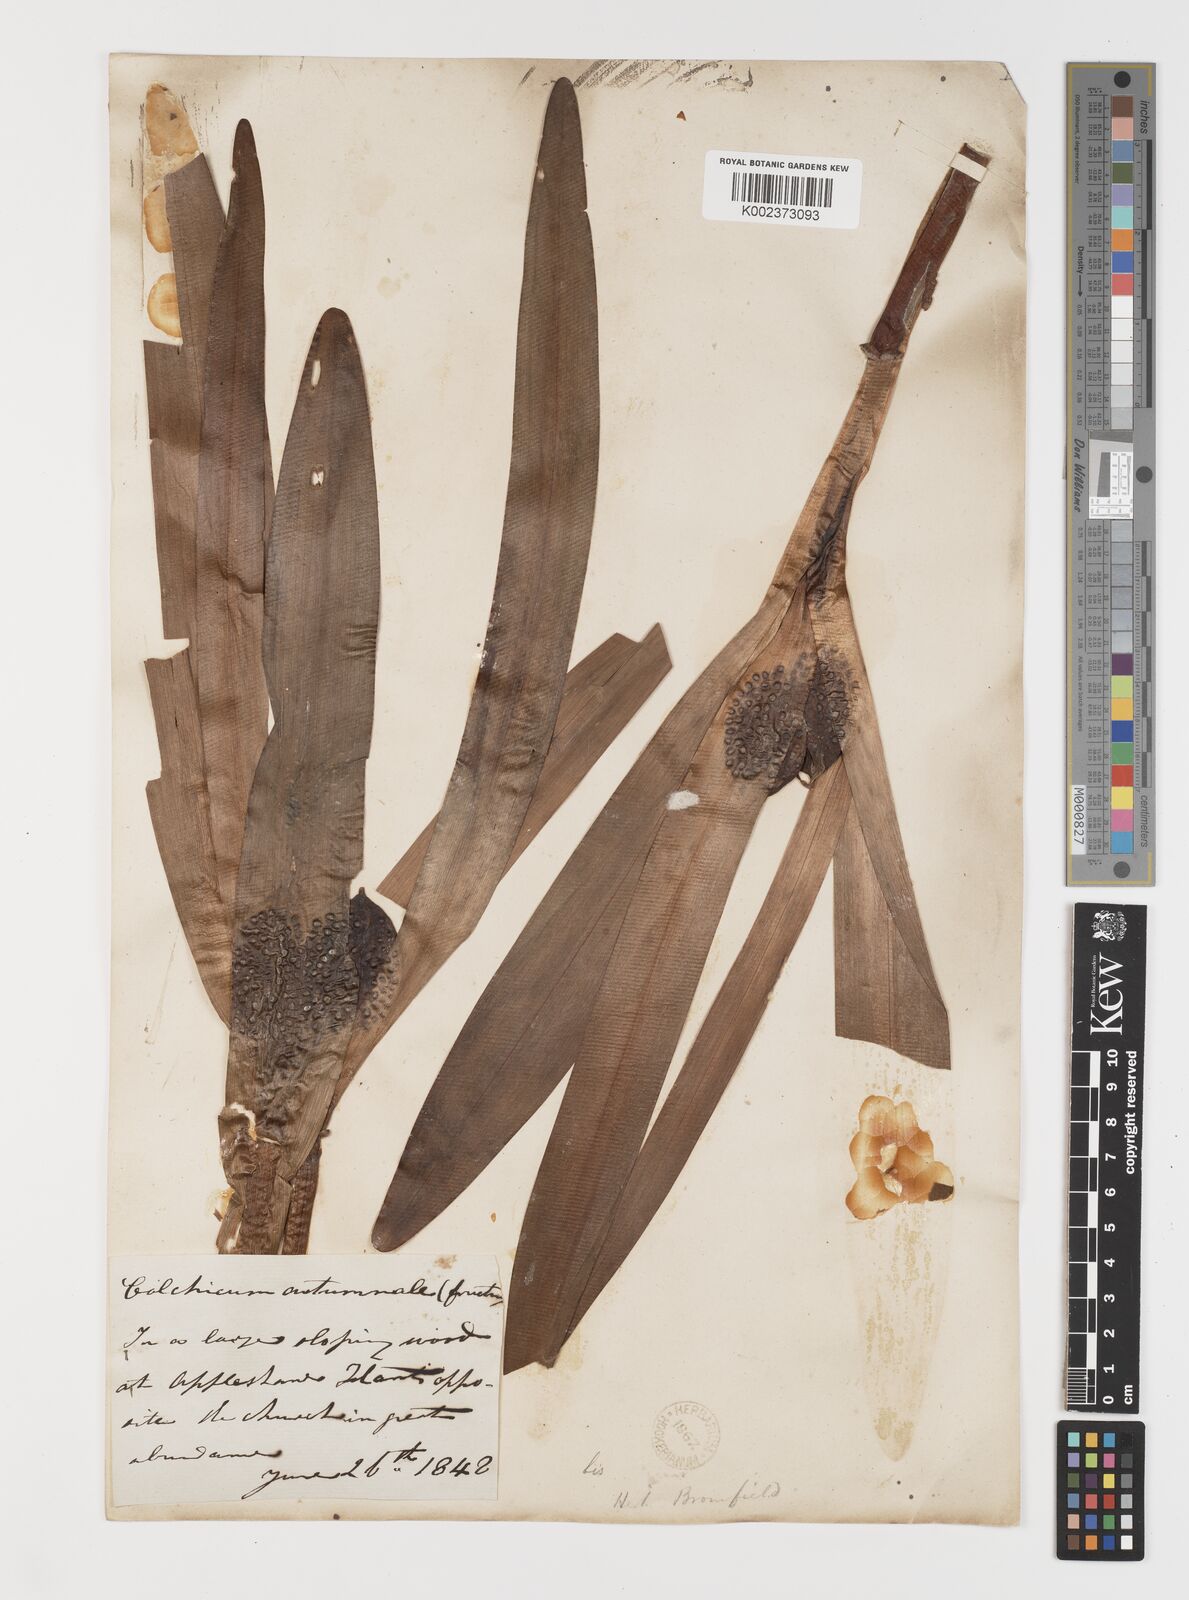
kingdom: Plantae
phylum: Tracheophyta
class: Liliopsida
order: Liliales
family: Colchicaceae
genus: Colchicum
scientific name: Colchicum autumnale
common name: Autumn crocus
